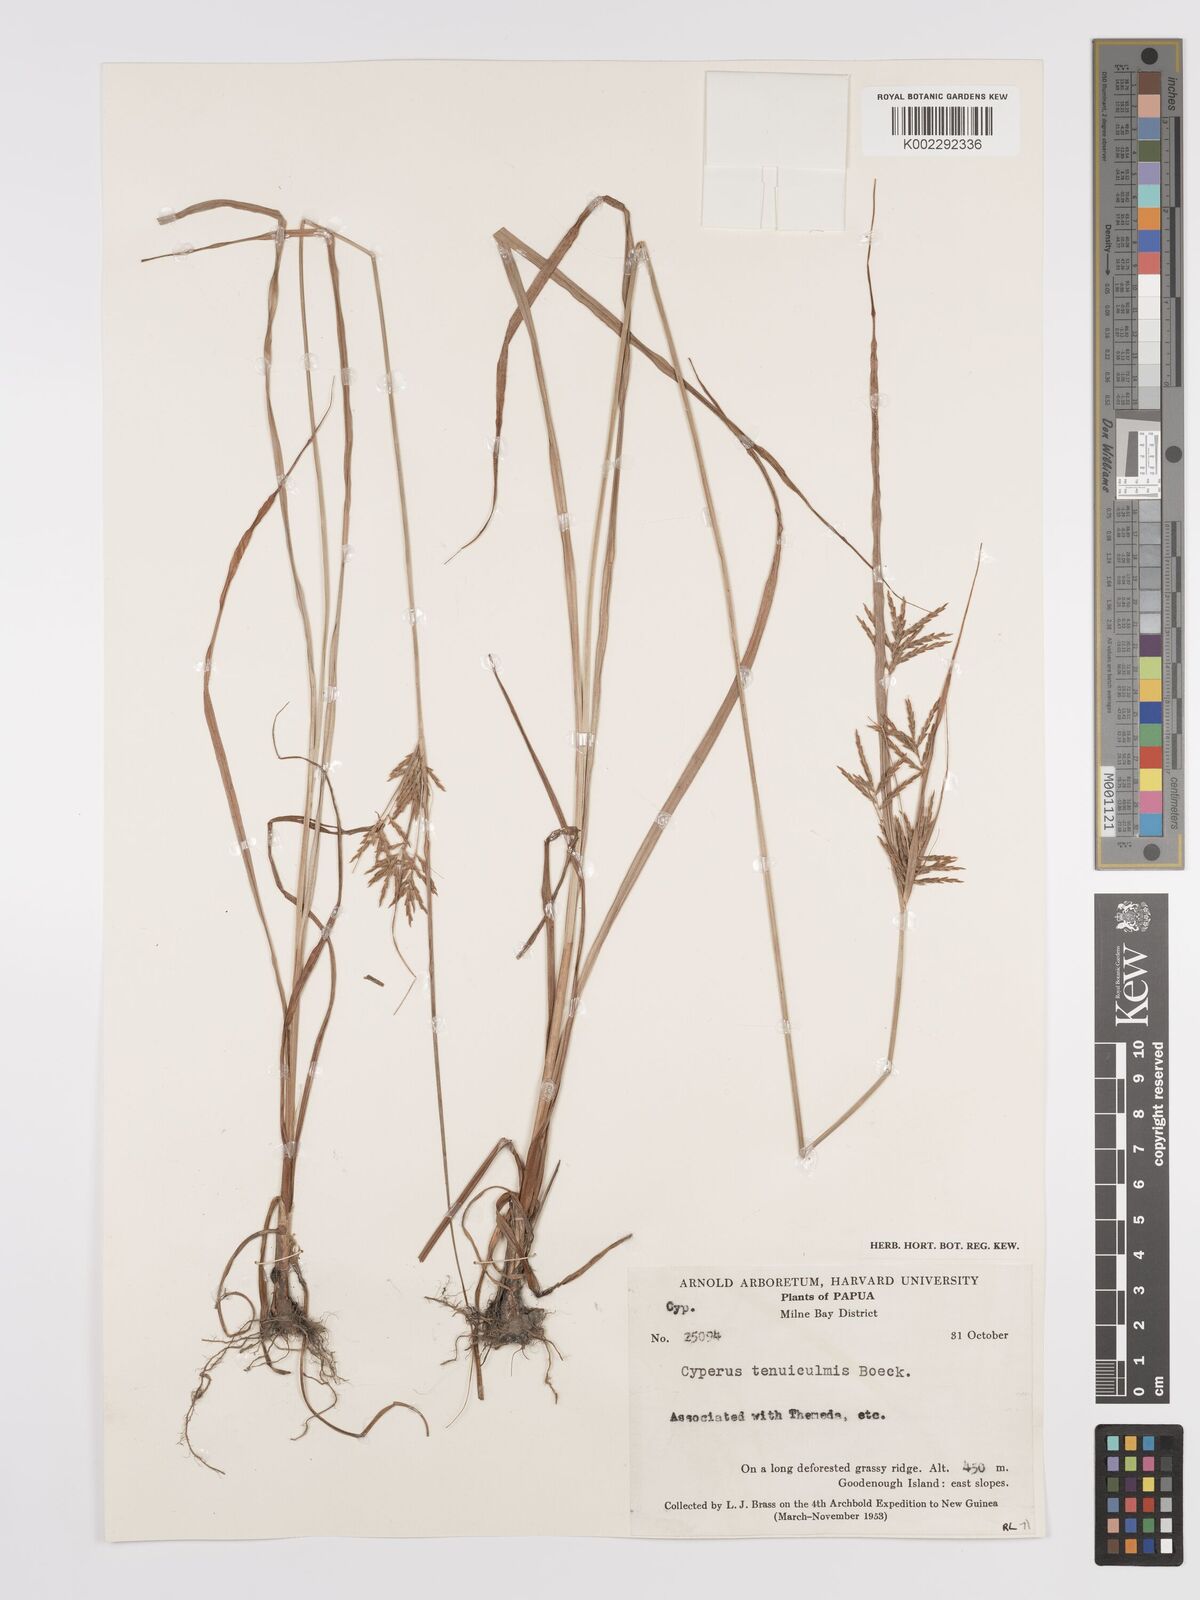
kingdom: Plantae
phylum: Tracheophyta
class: Liliopsida
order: Poales
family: Cyperaceae
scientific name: Cyperaceae
